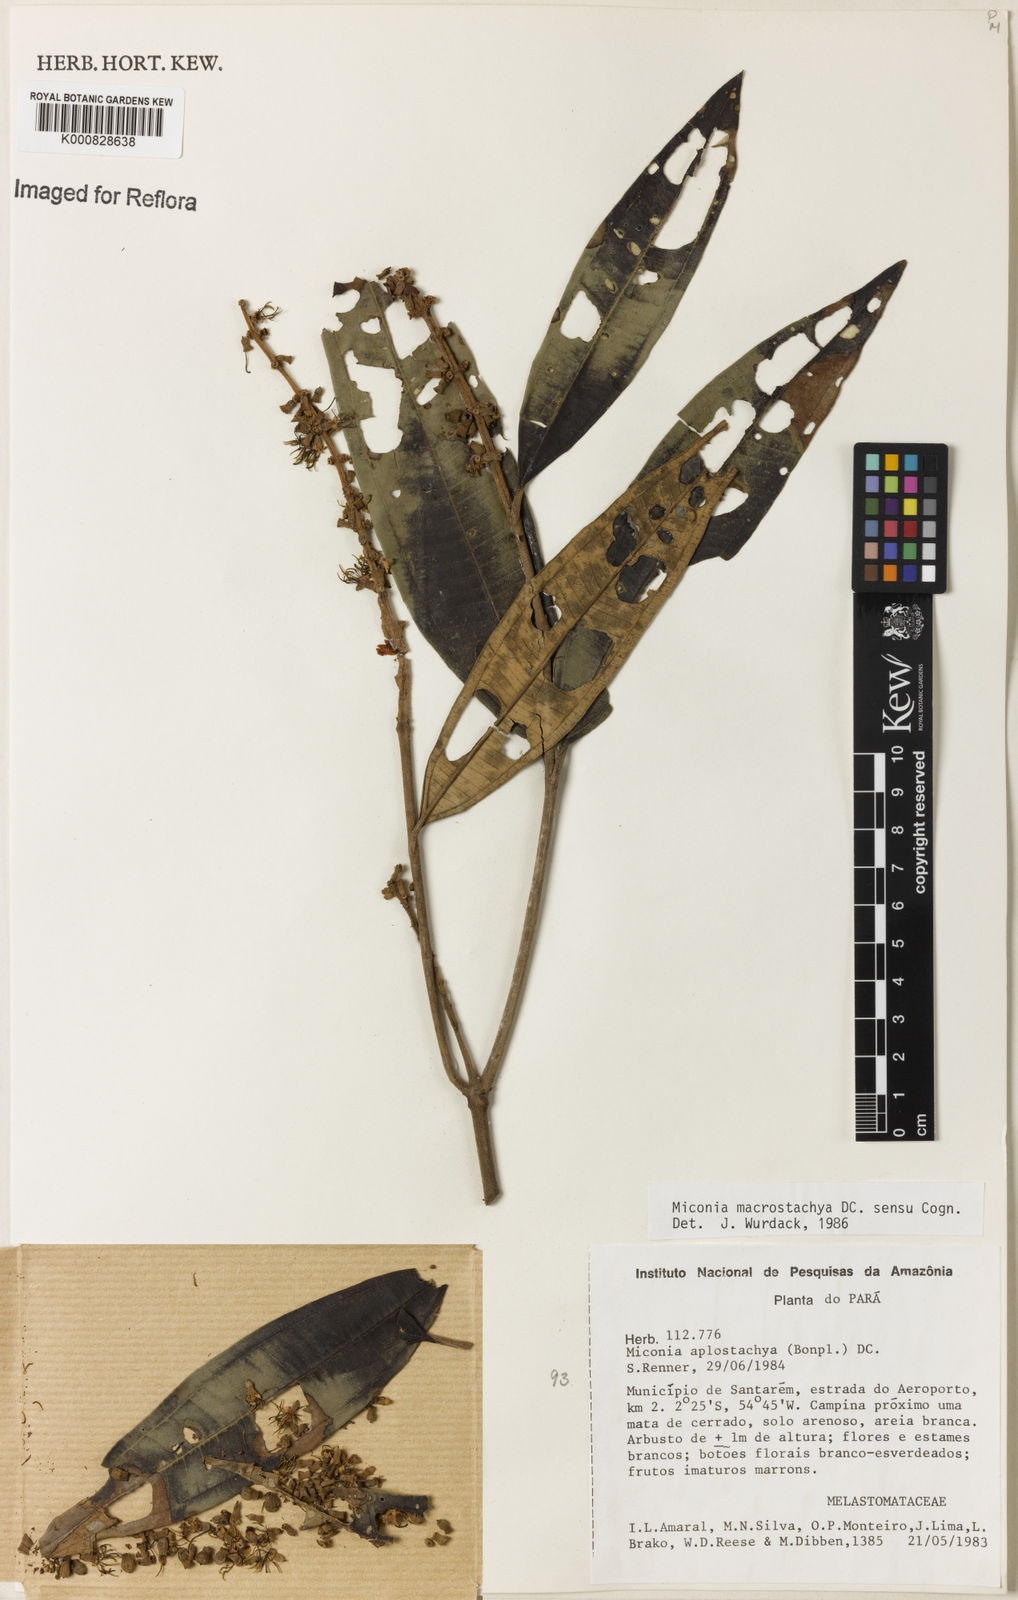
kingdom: Plantae
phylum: Tracheophyta
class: Magnoliopsida
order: Myrtales
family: Melastomataceae
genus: Miconia
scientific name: Miconia aplostachya
